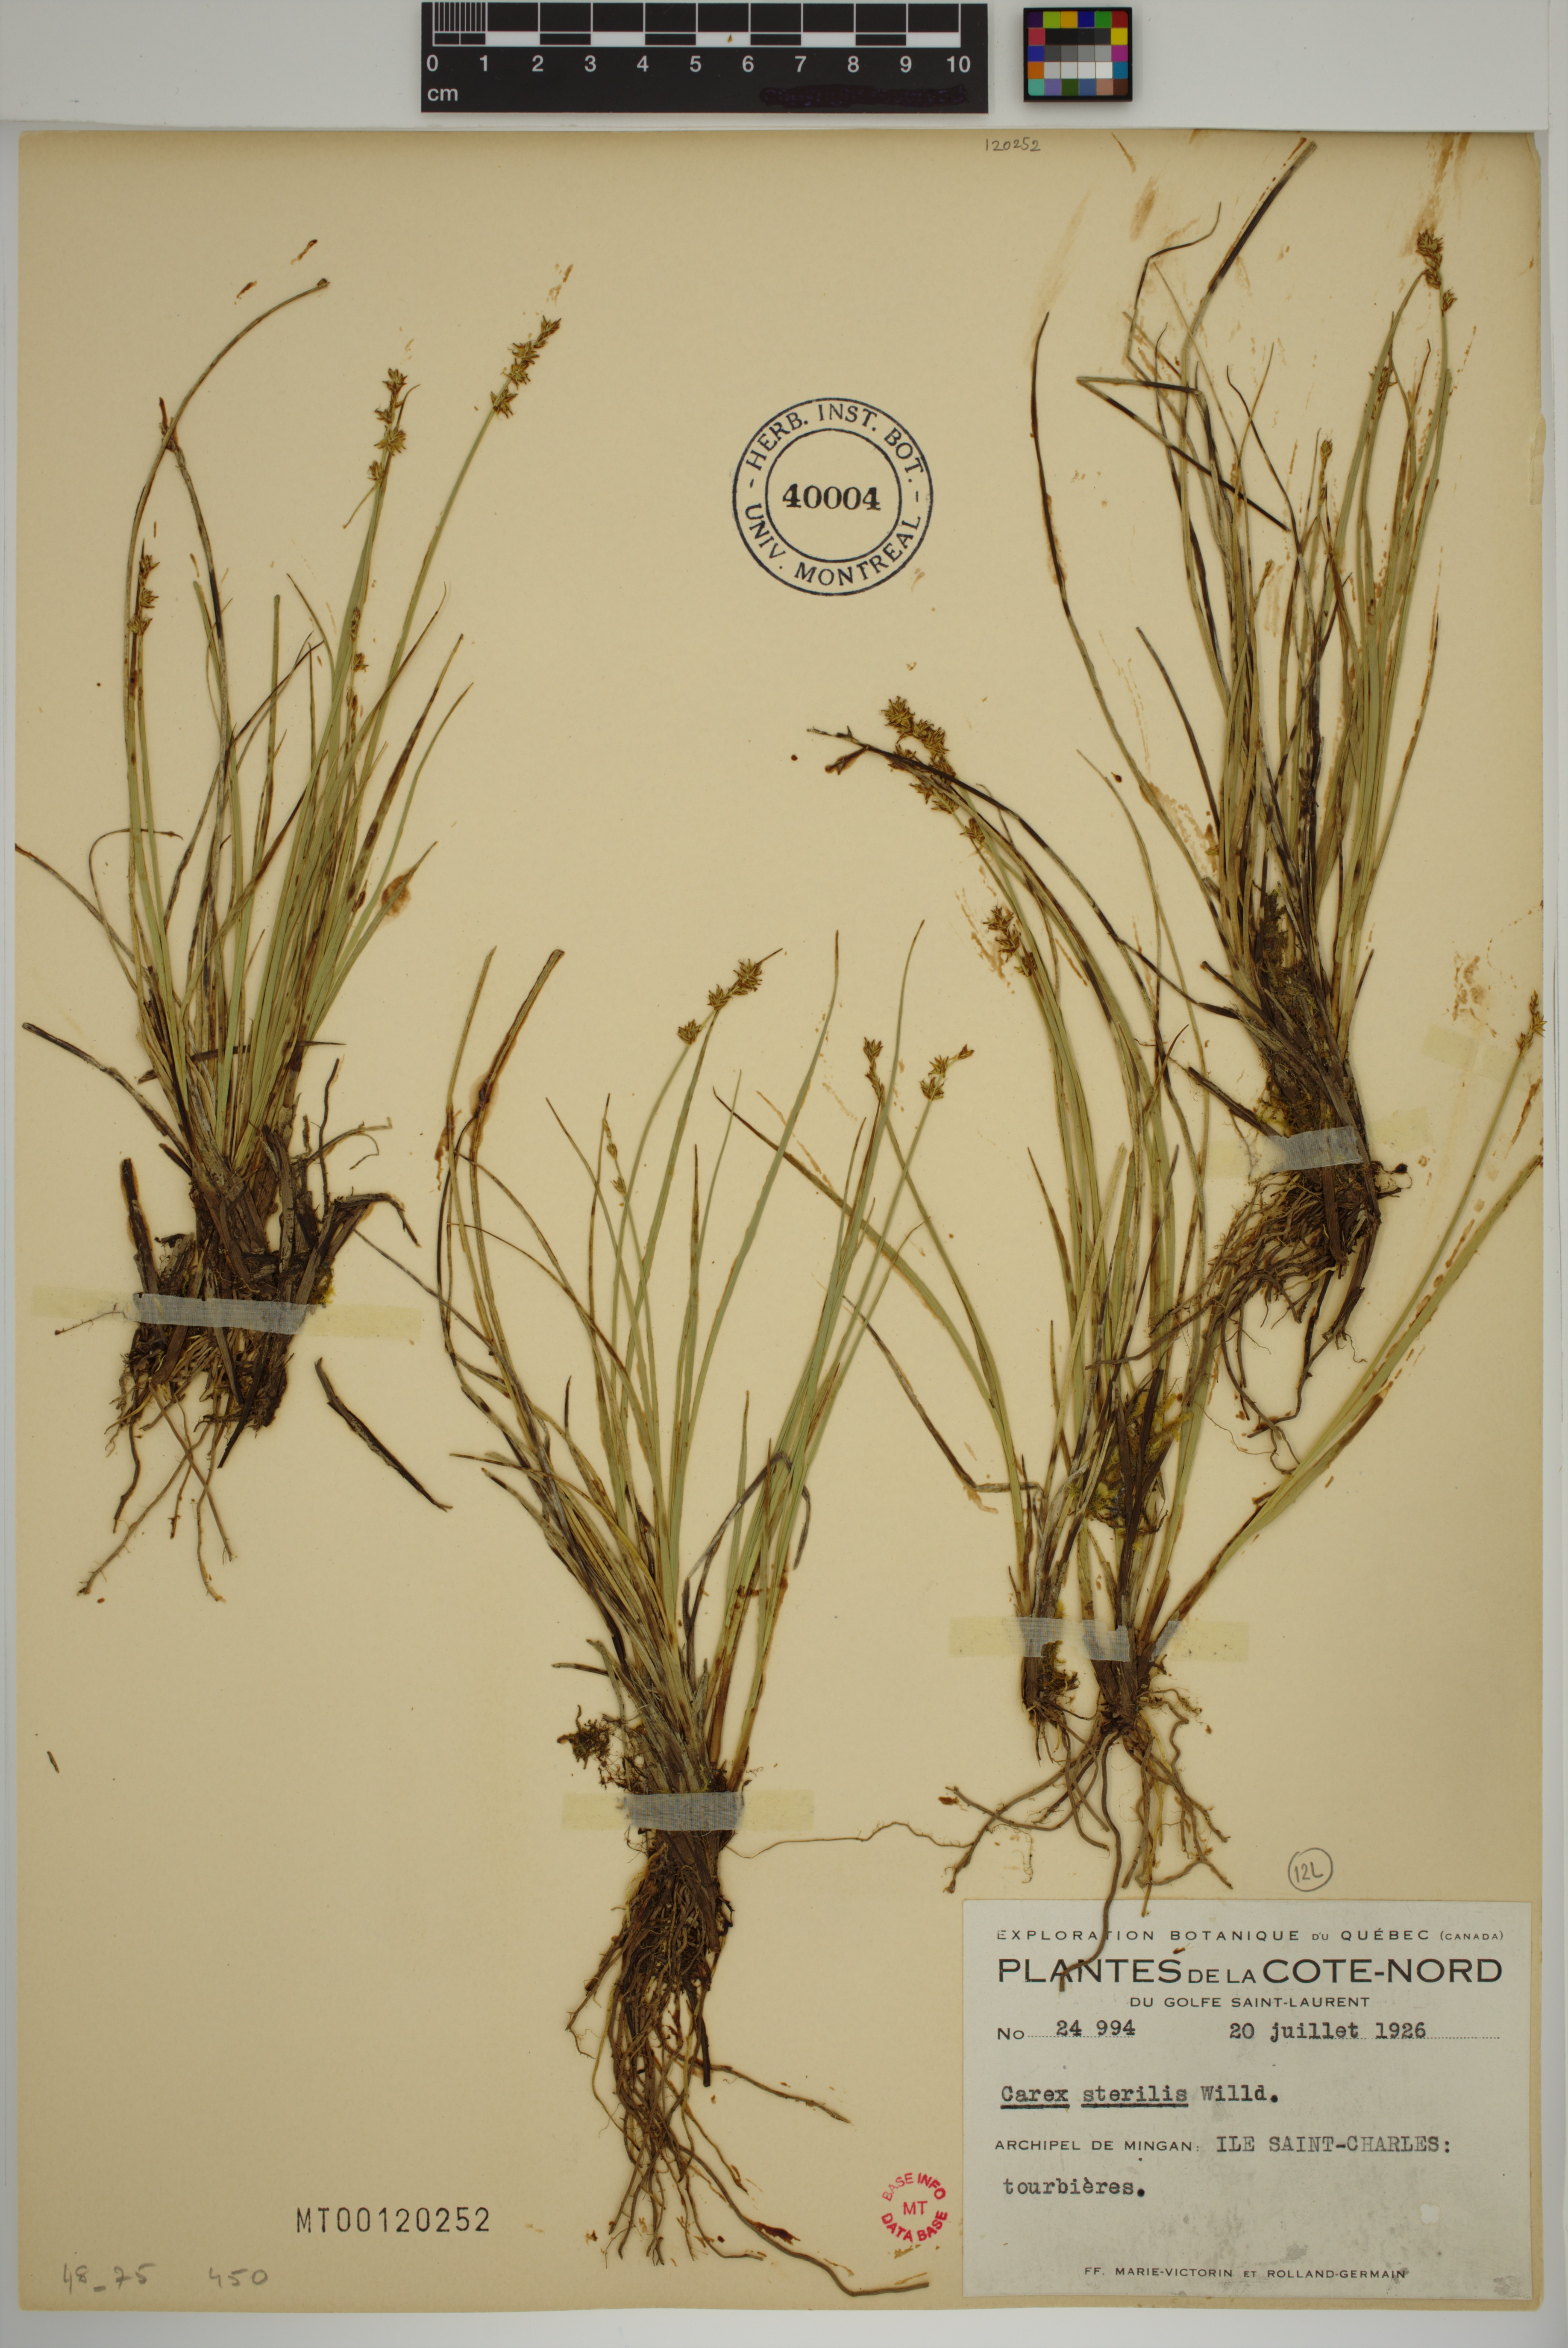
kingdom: Plantae
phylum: Tracheophyta
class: Liliopsida
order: Poales
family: Cyperaceae
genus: Carex
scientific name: Carex sterilis
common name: Dioecious sedge
